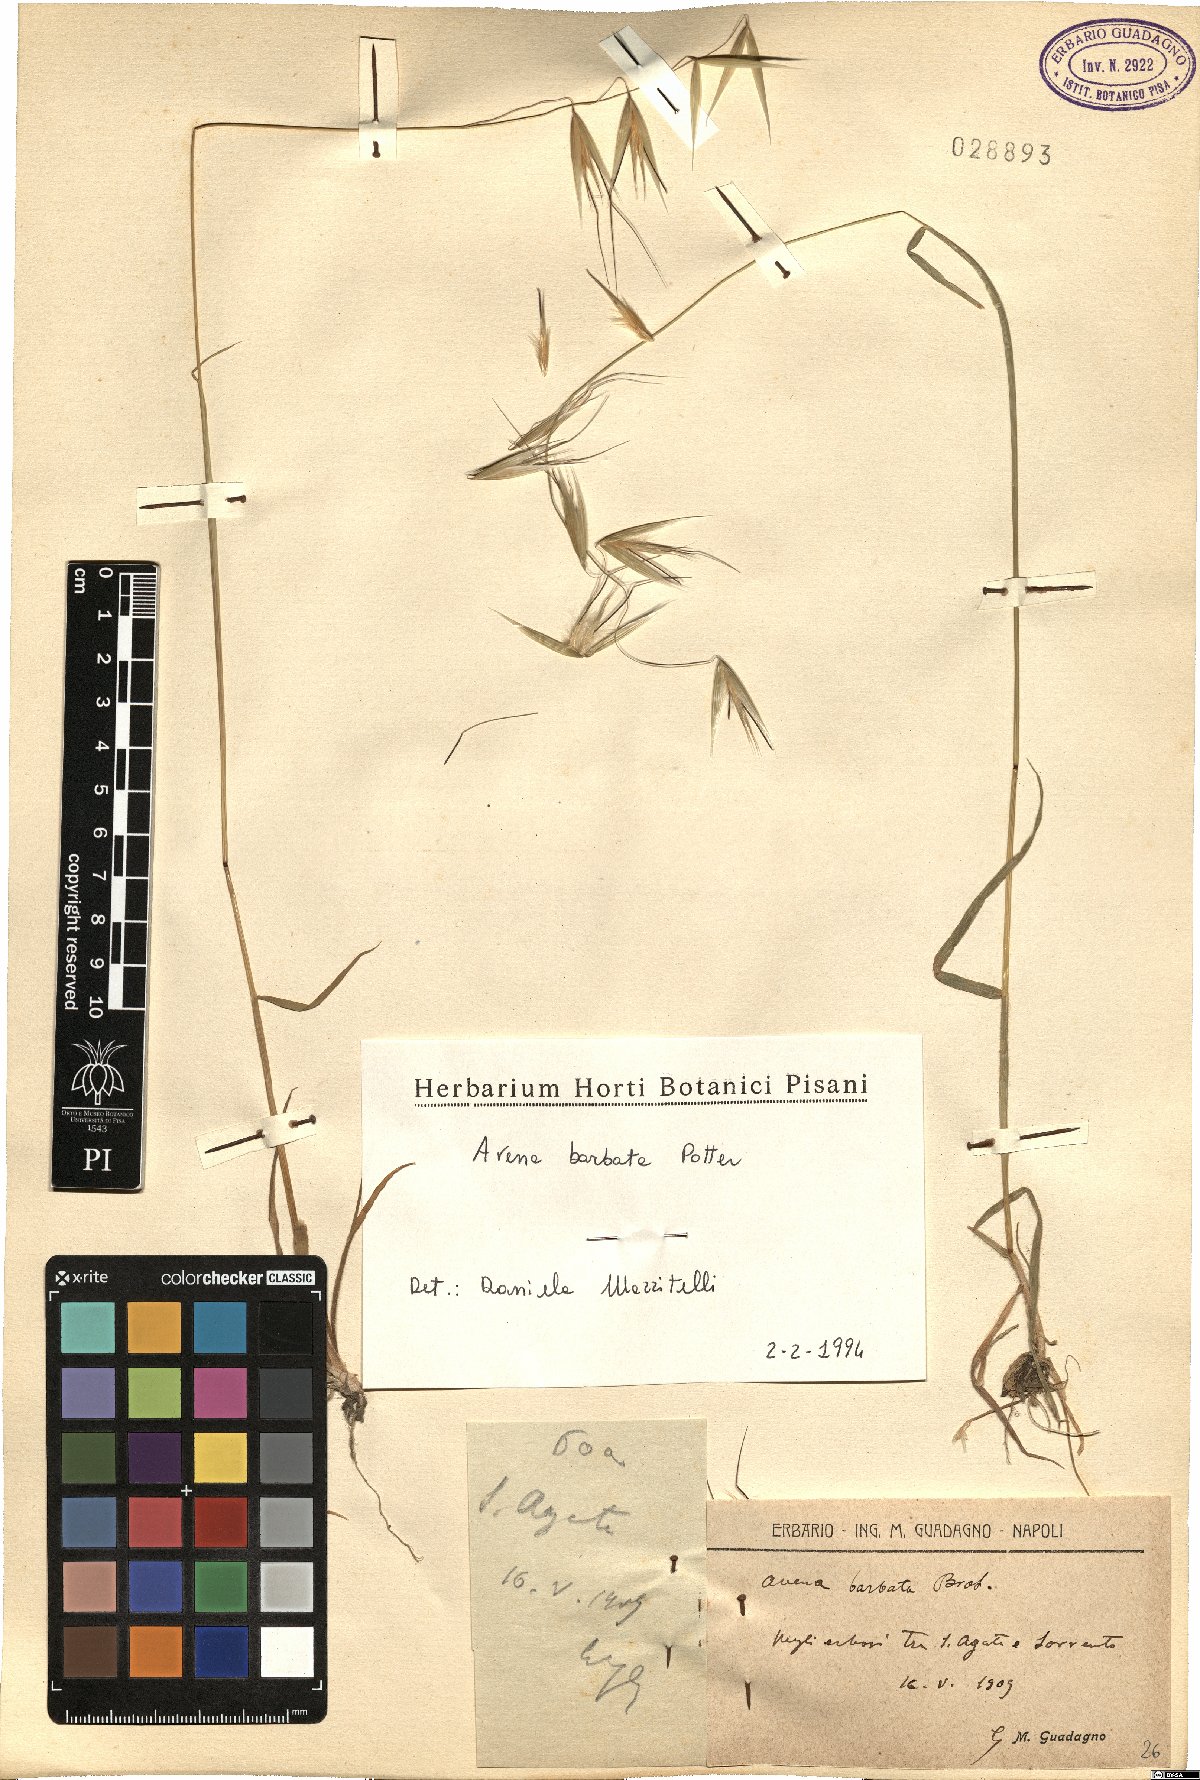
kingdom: Plantae
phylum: Tracheophyta
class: Liliopsida
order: Poales
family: Poaceae
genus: Avena
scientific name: Avena barbata
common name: Slender oat
